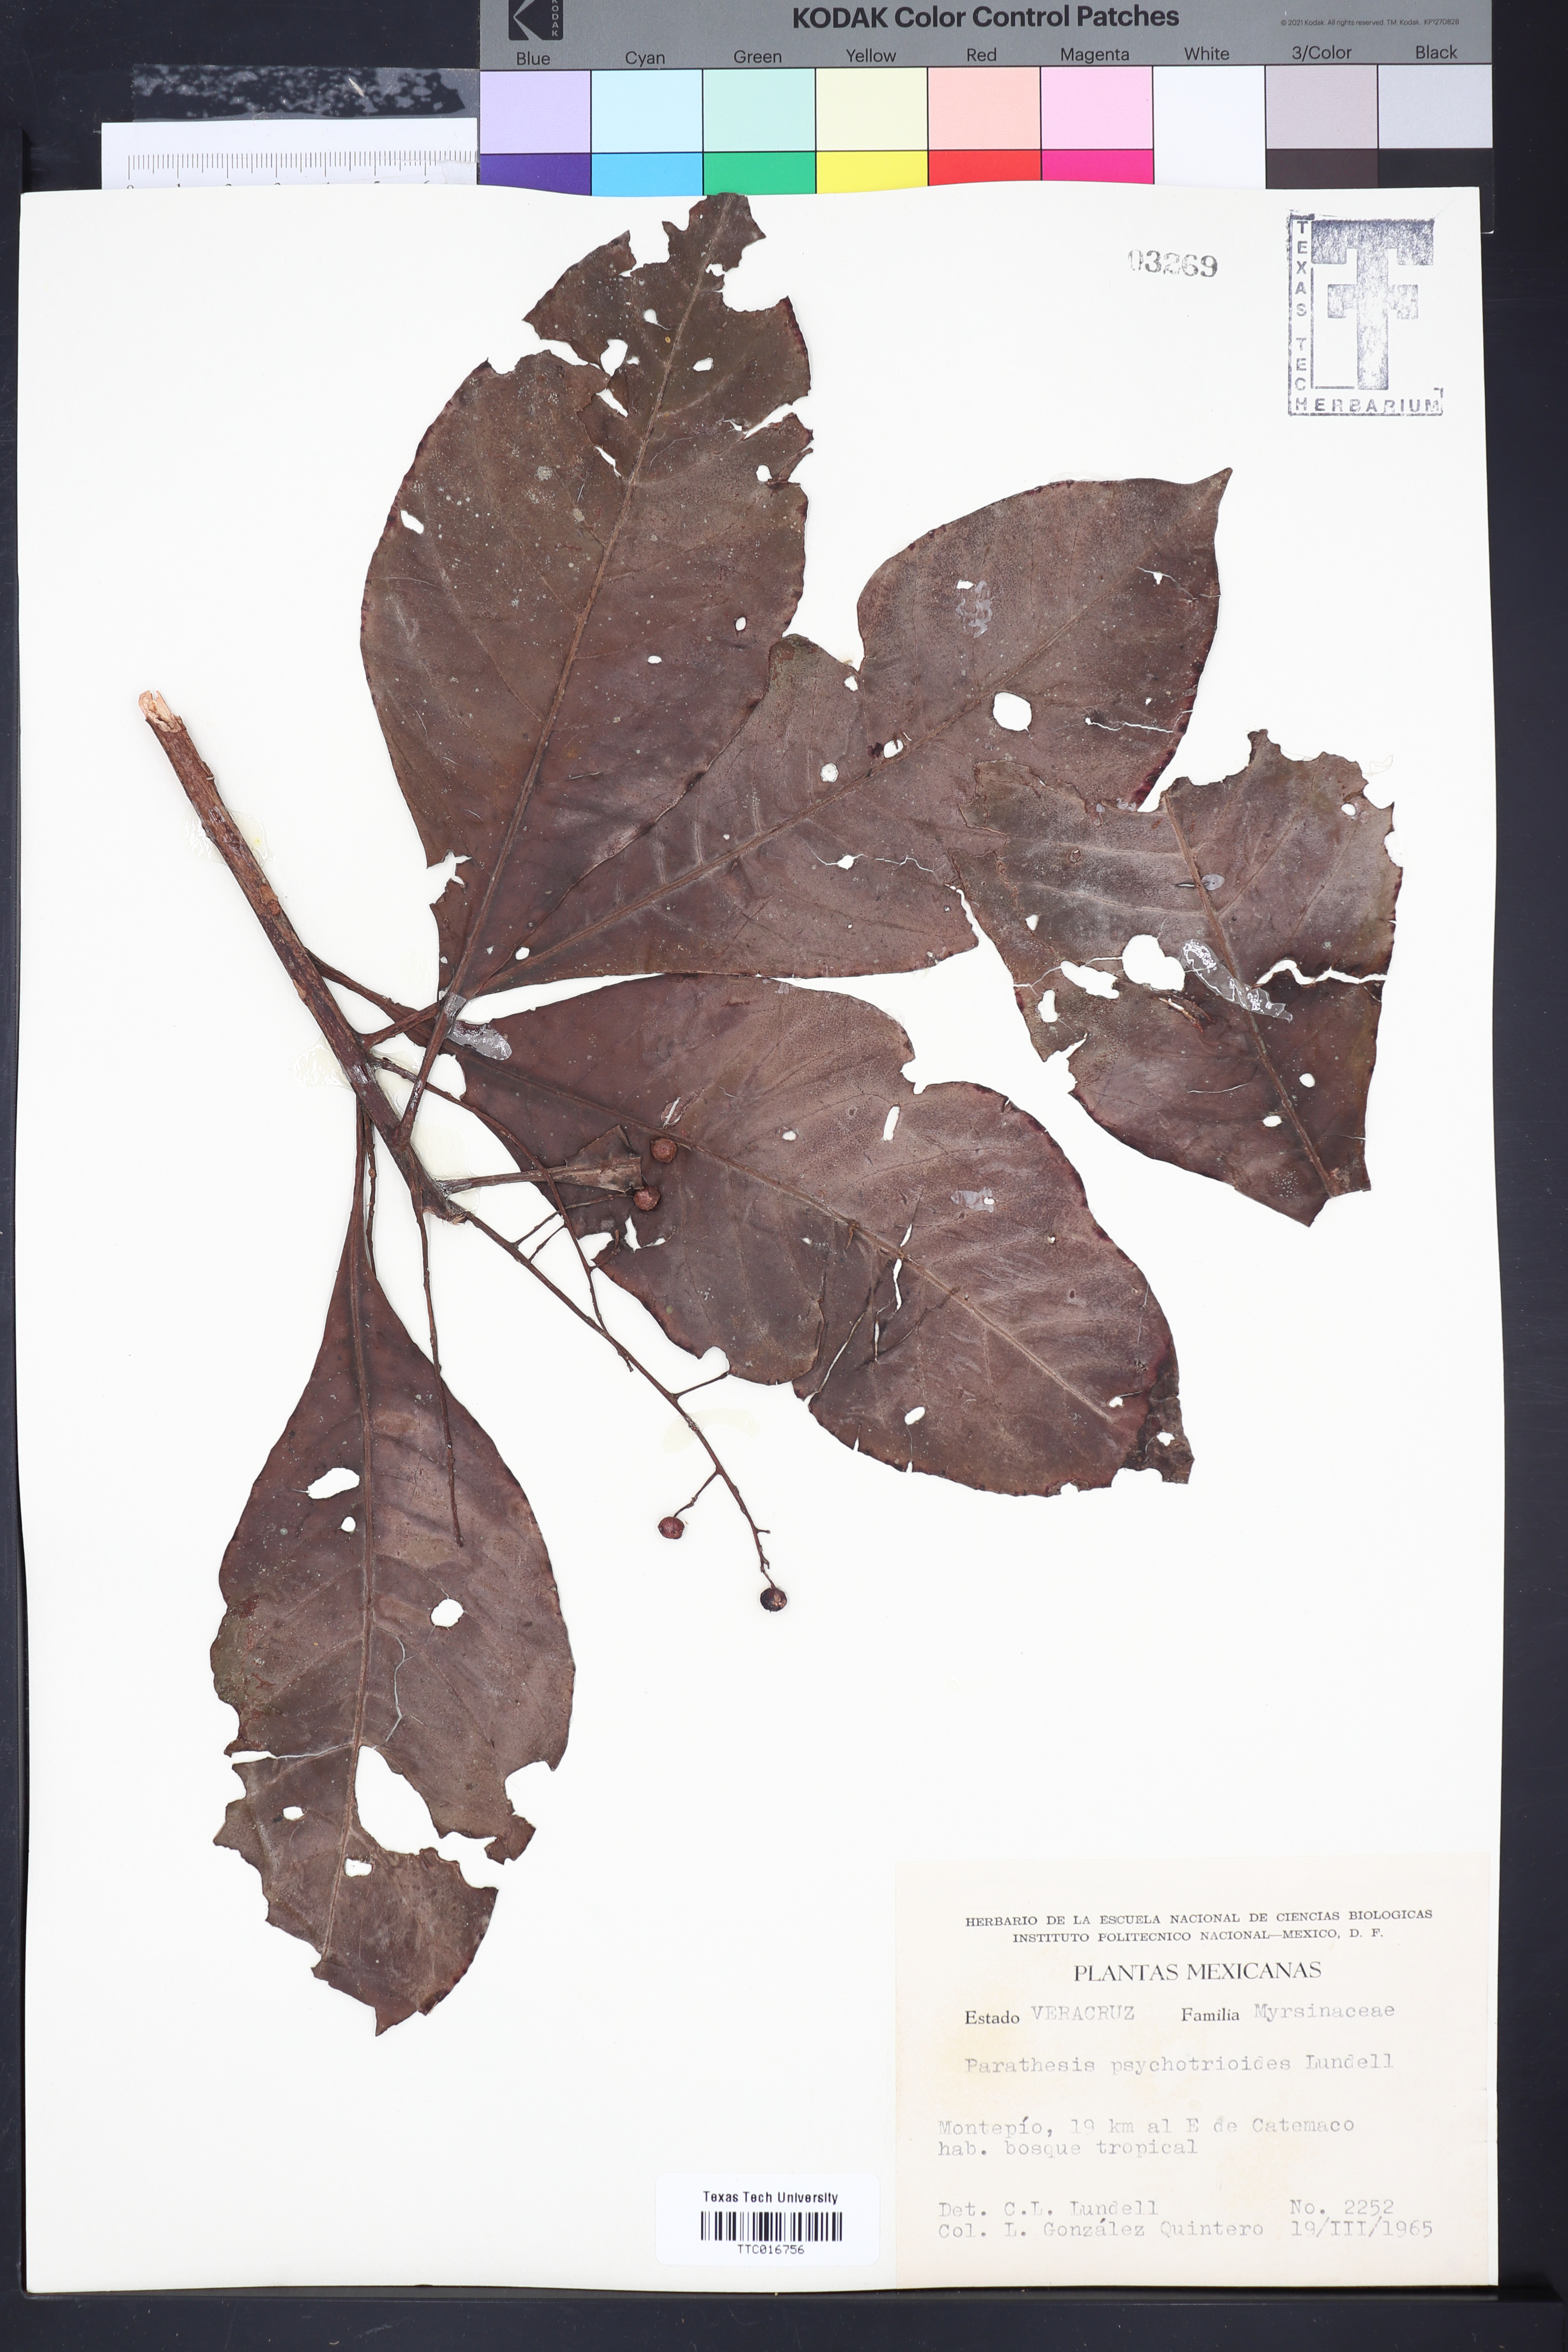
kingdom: Plantae
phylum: Tracheophyta
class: Magnoliopsida
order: Ericales
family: Primulaceae
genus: Parathesis
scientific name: Parathesis psychotrioides
